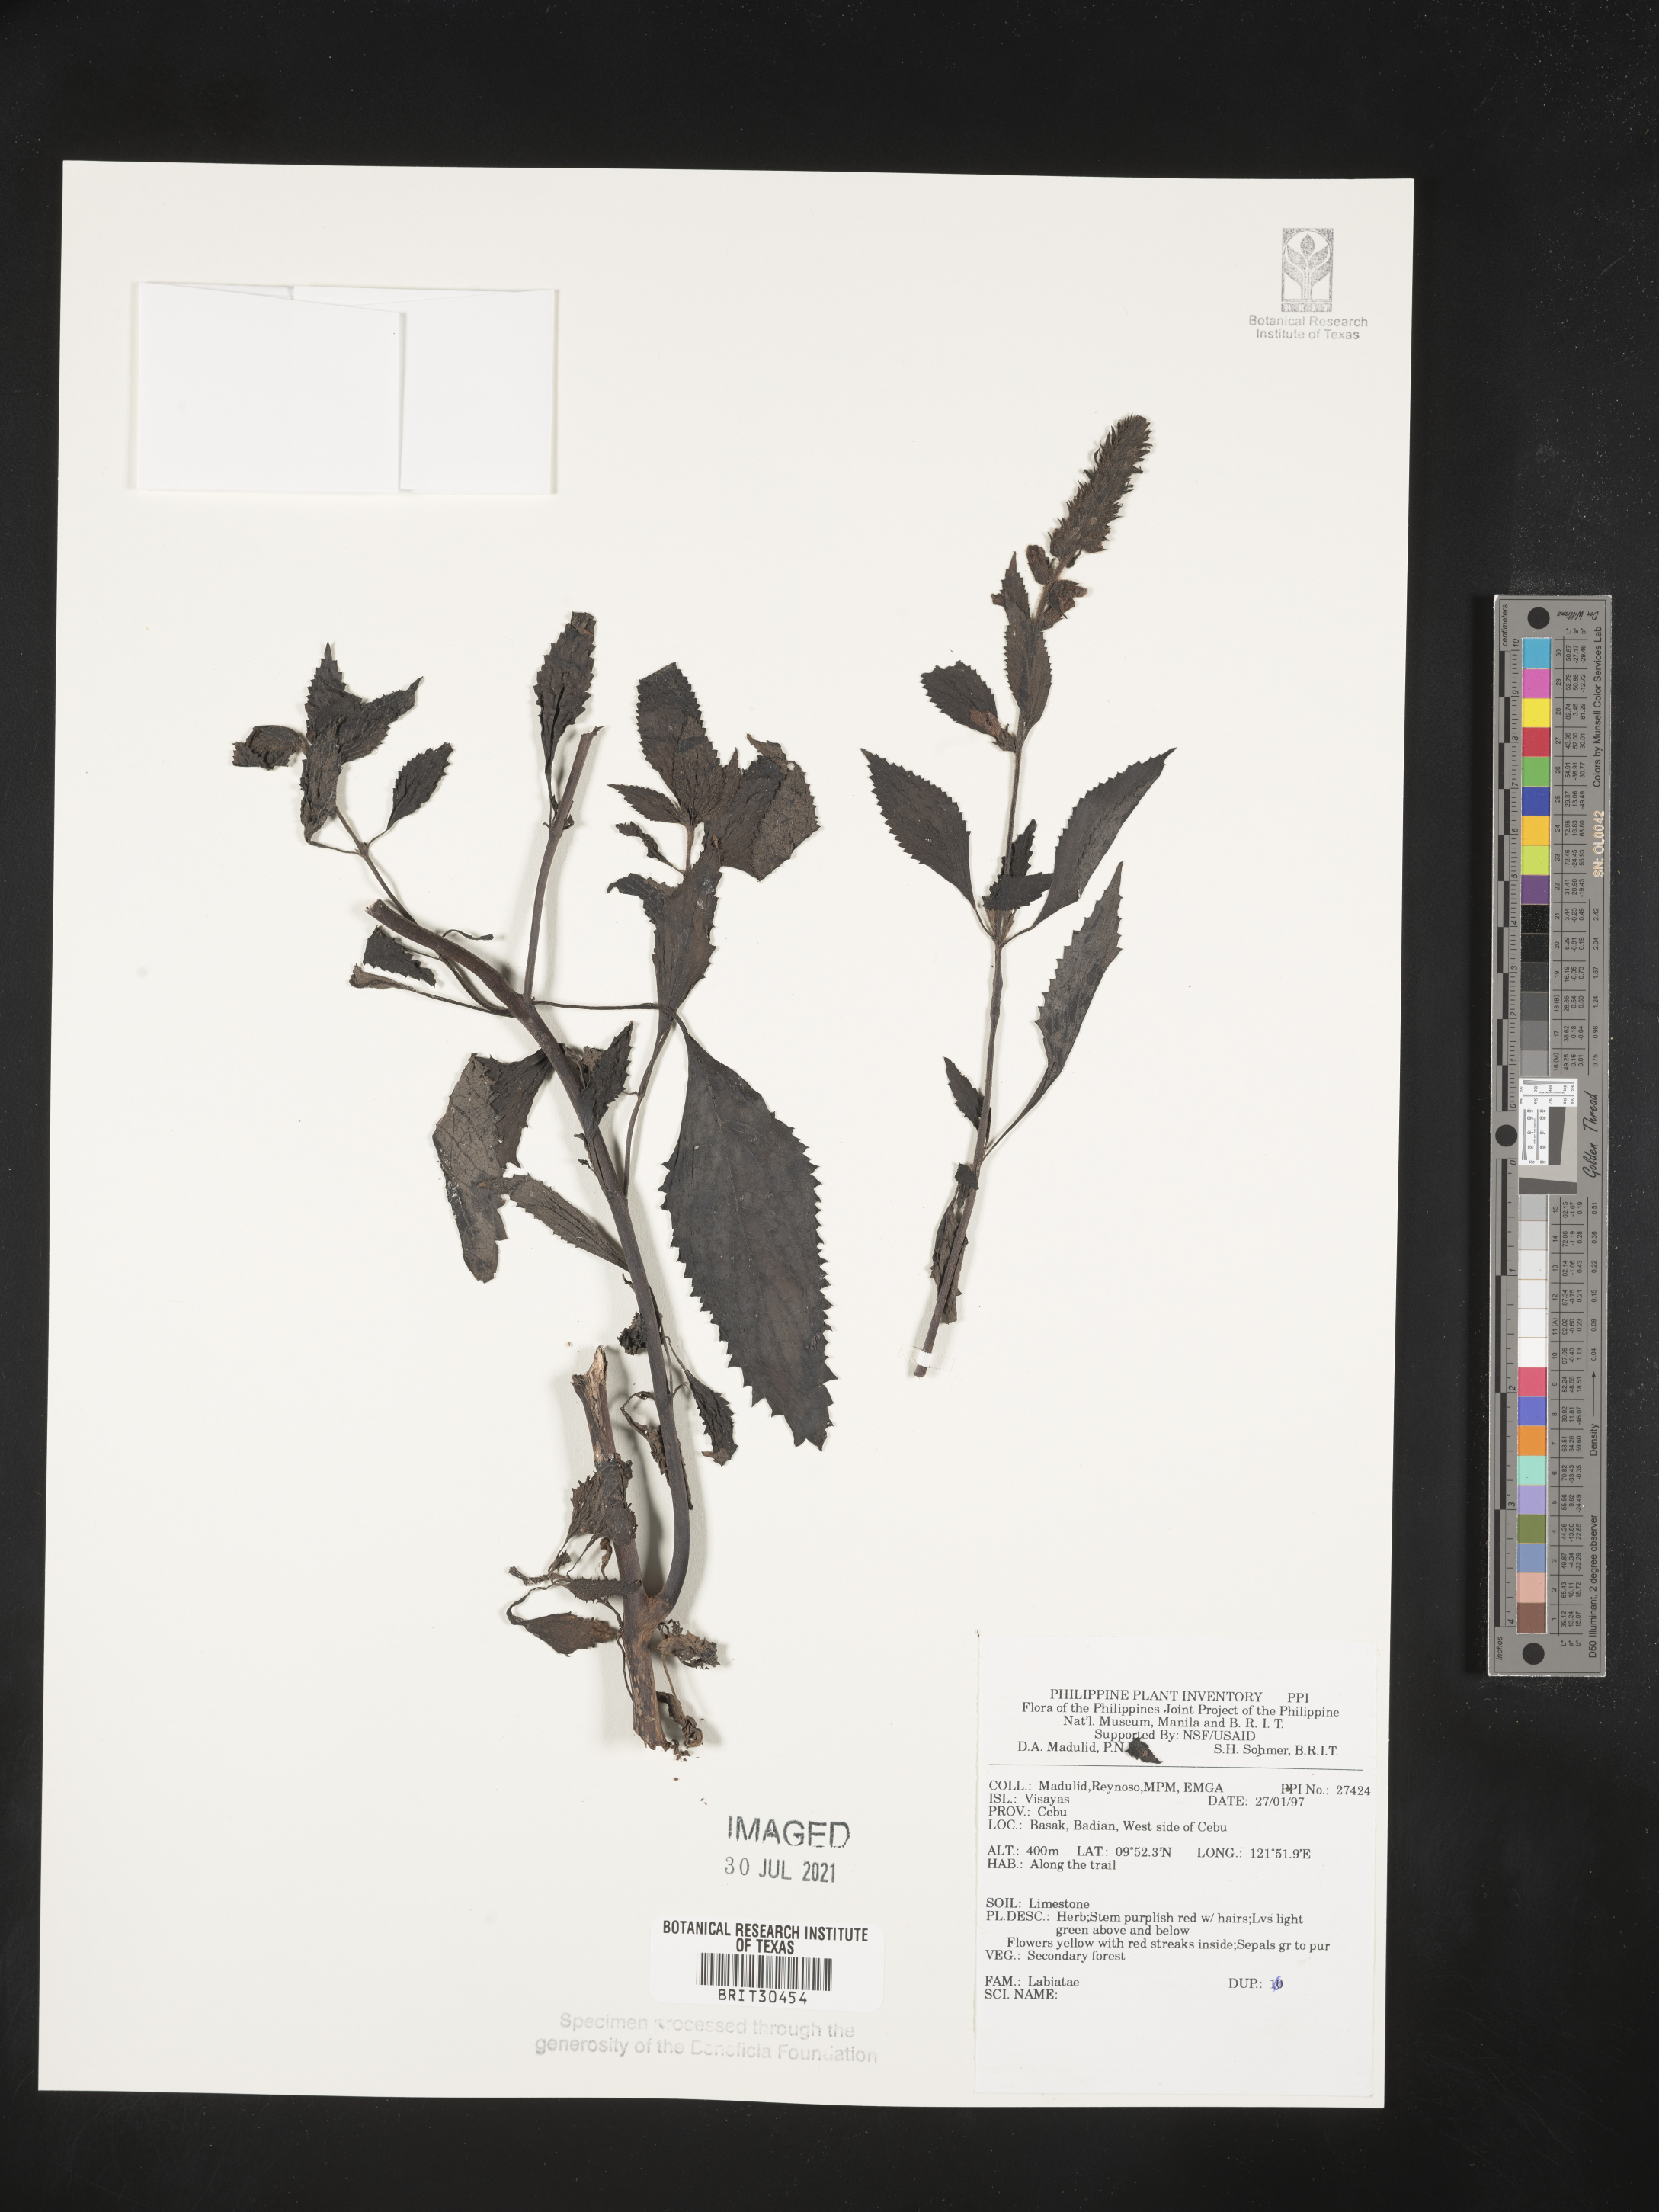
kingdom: Plantae
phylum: Tracheophyta
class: Magnoliopsida
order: Lamiales
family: Lamiaceae
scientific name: Lamiaceae
